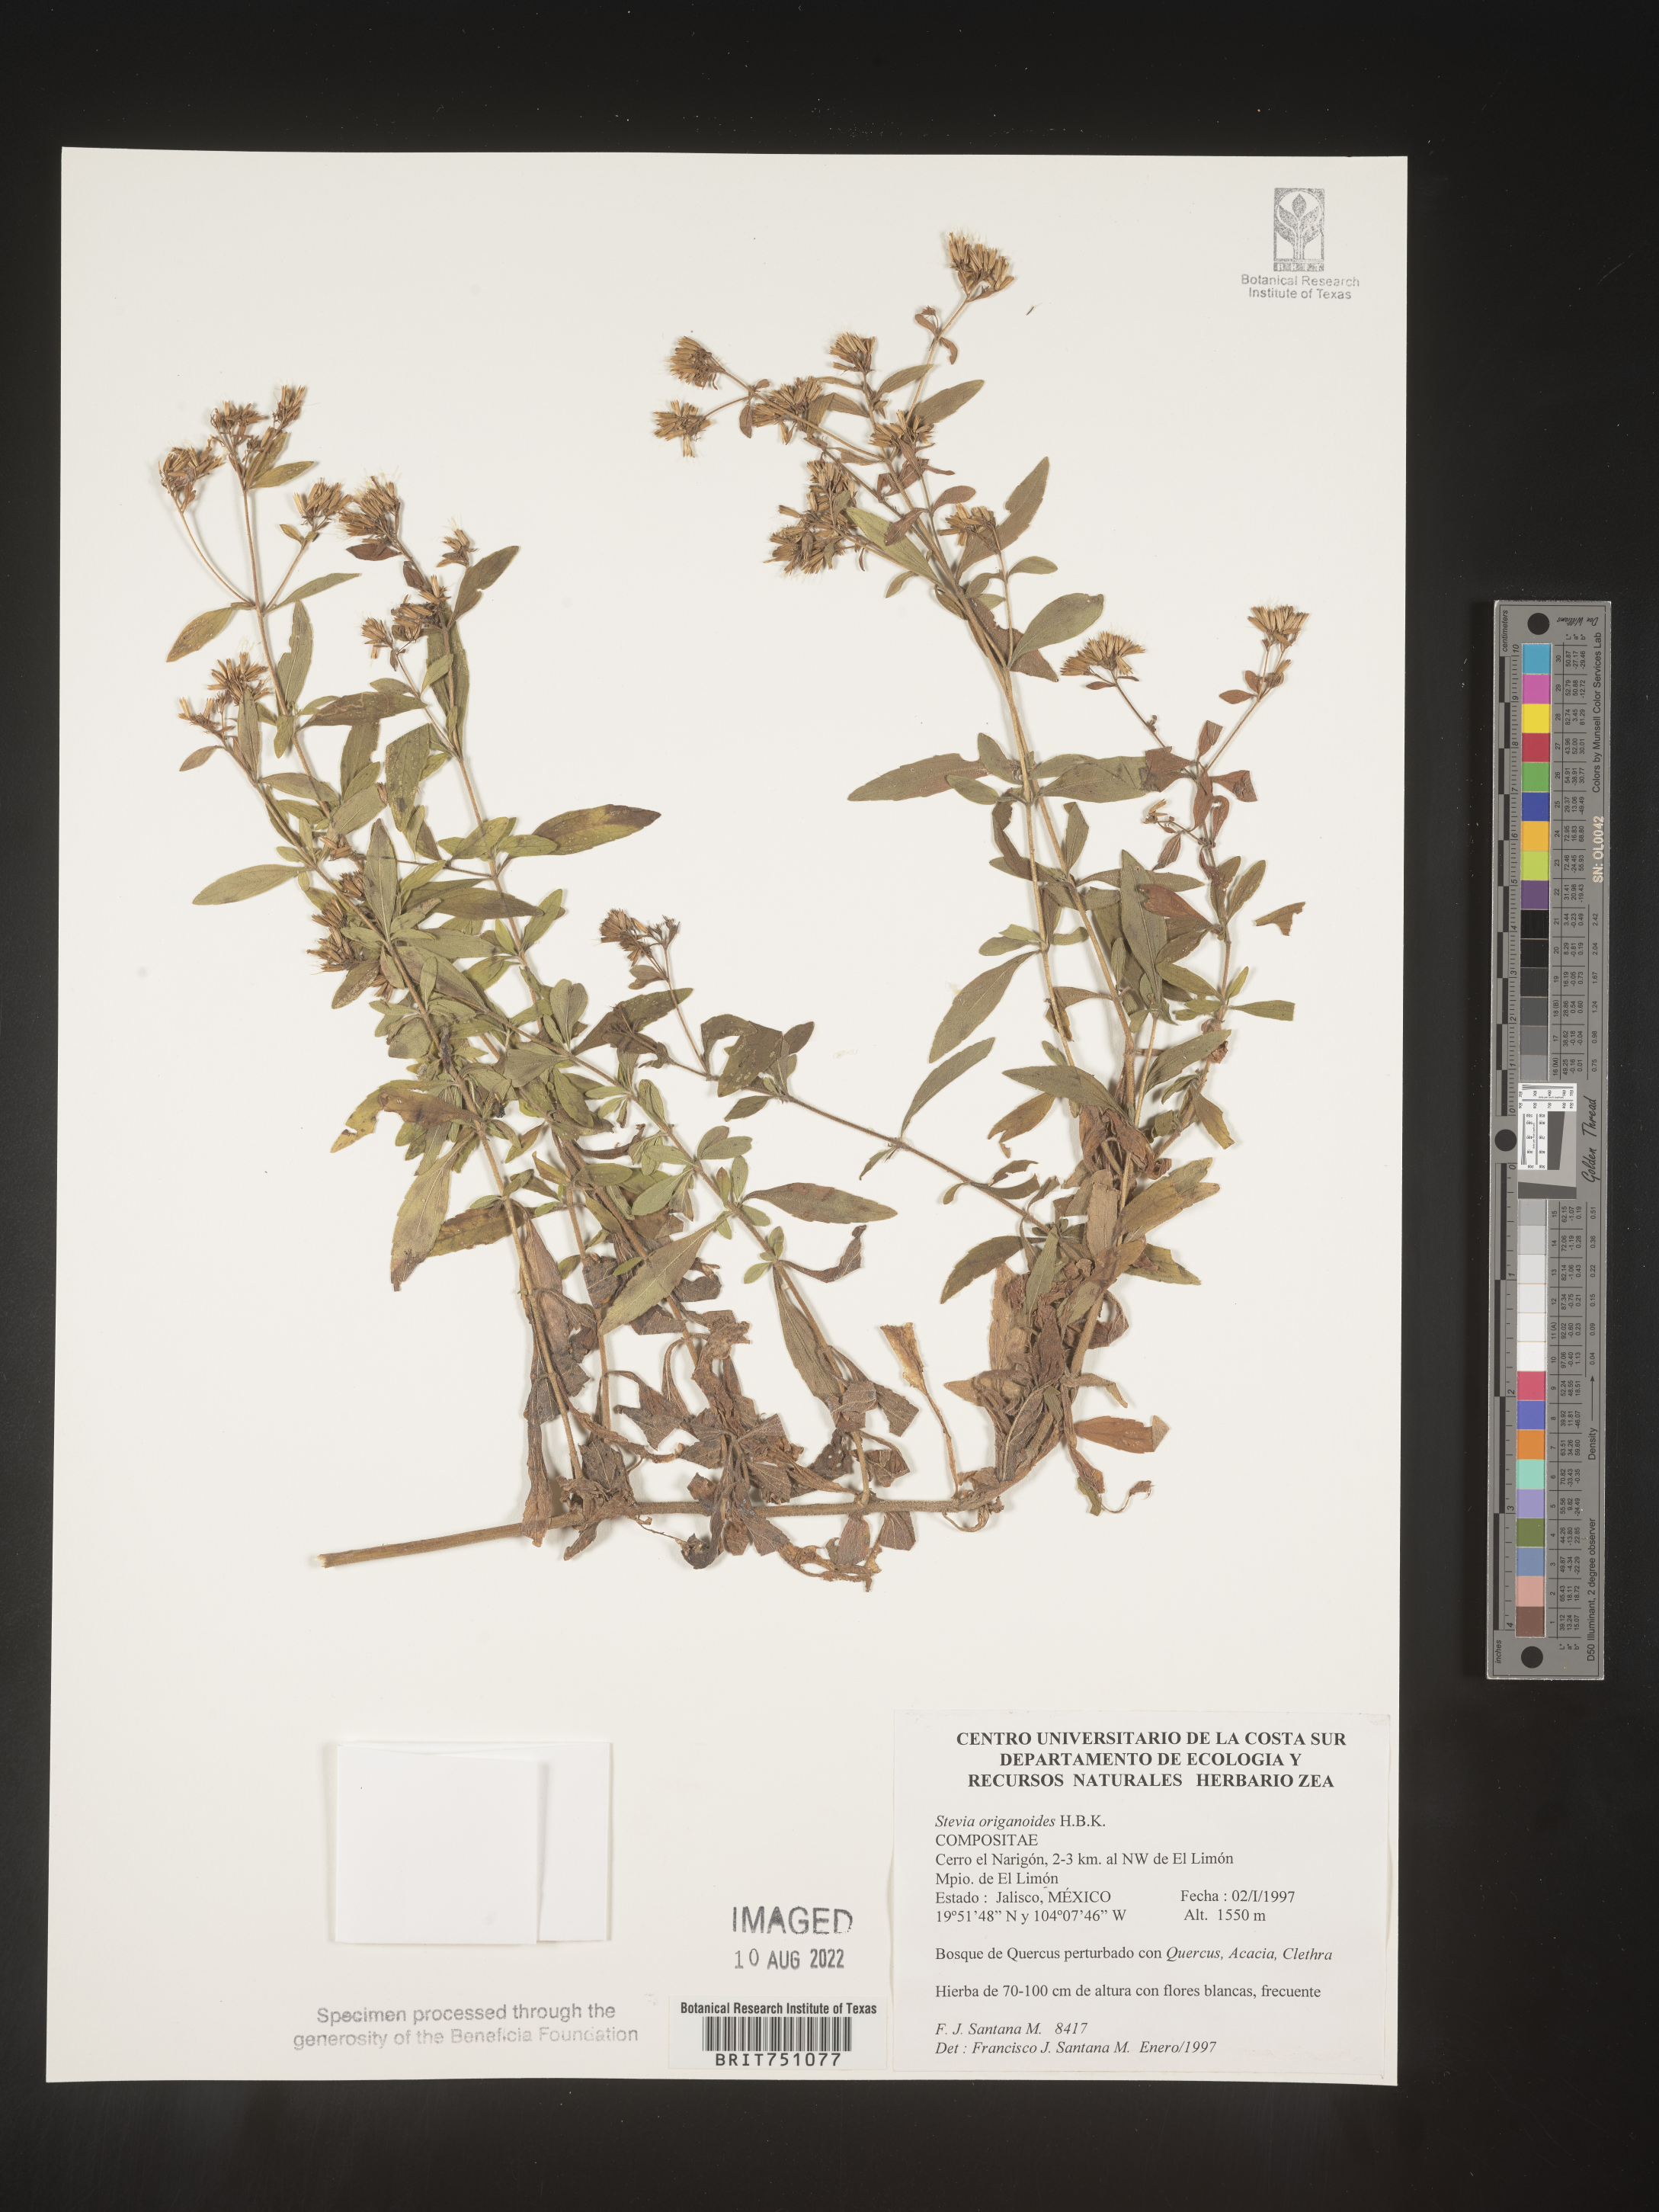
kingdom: Plantae
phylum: Tracheophyta
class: Magnoliopsida
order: Asterales
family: Asteraceae
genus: Stevia
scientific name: Stevia origanoides
